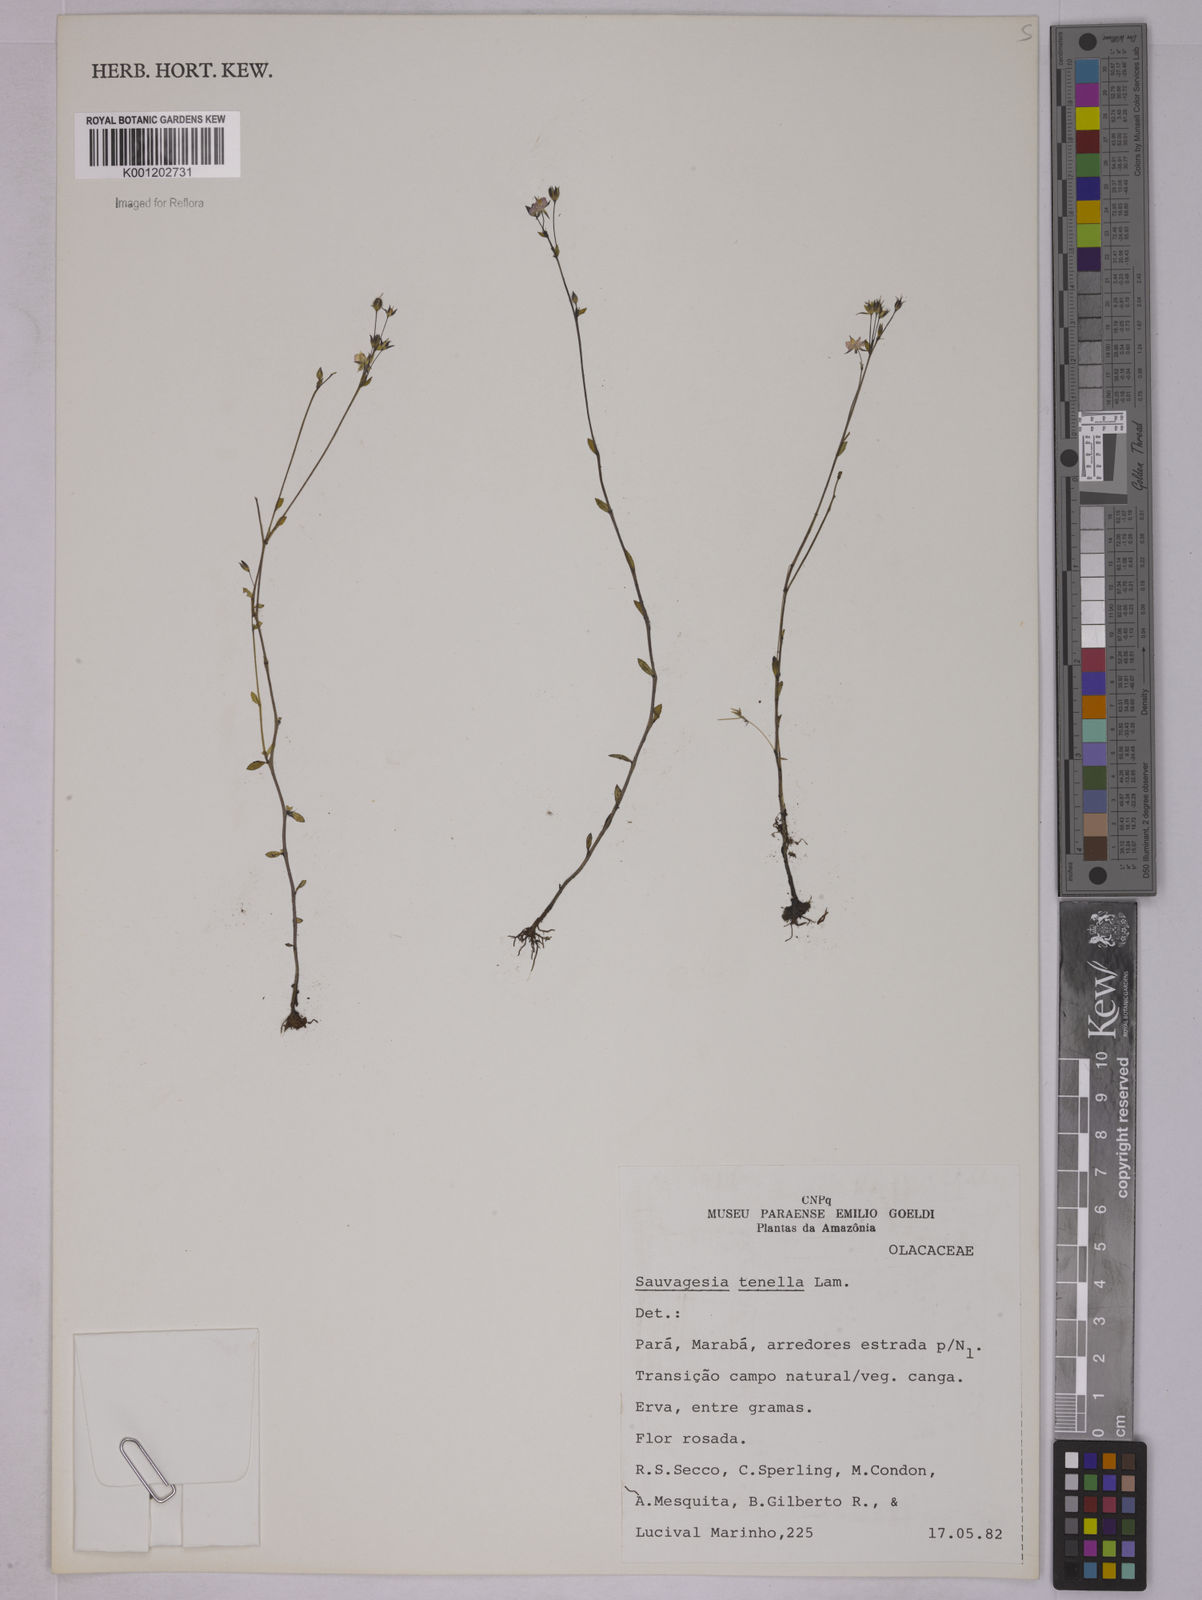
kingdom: Plantae
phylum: Tracheophyta
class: Magnoliopsida
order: Malpighiales
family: Ochnaceae
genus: Sauvagesia
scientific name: Sauvagesia tenella
